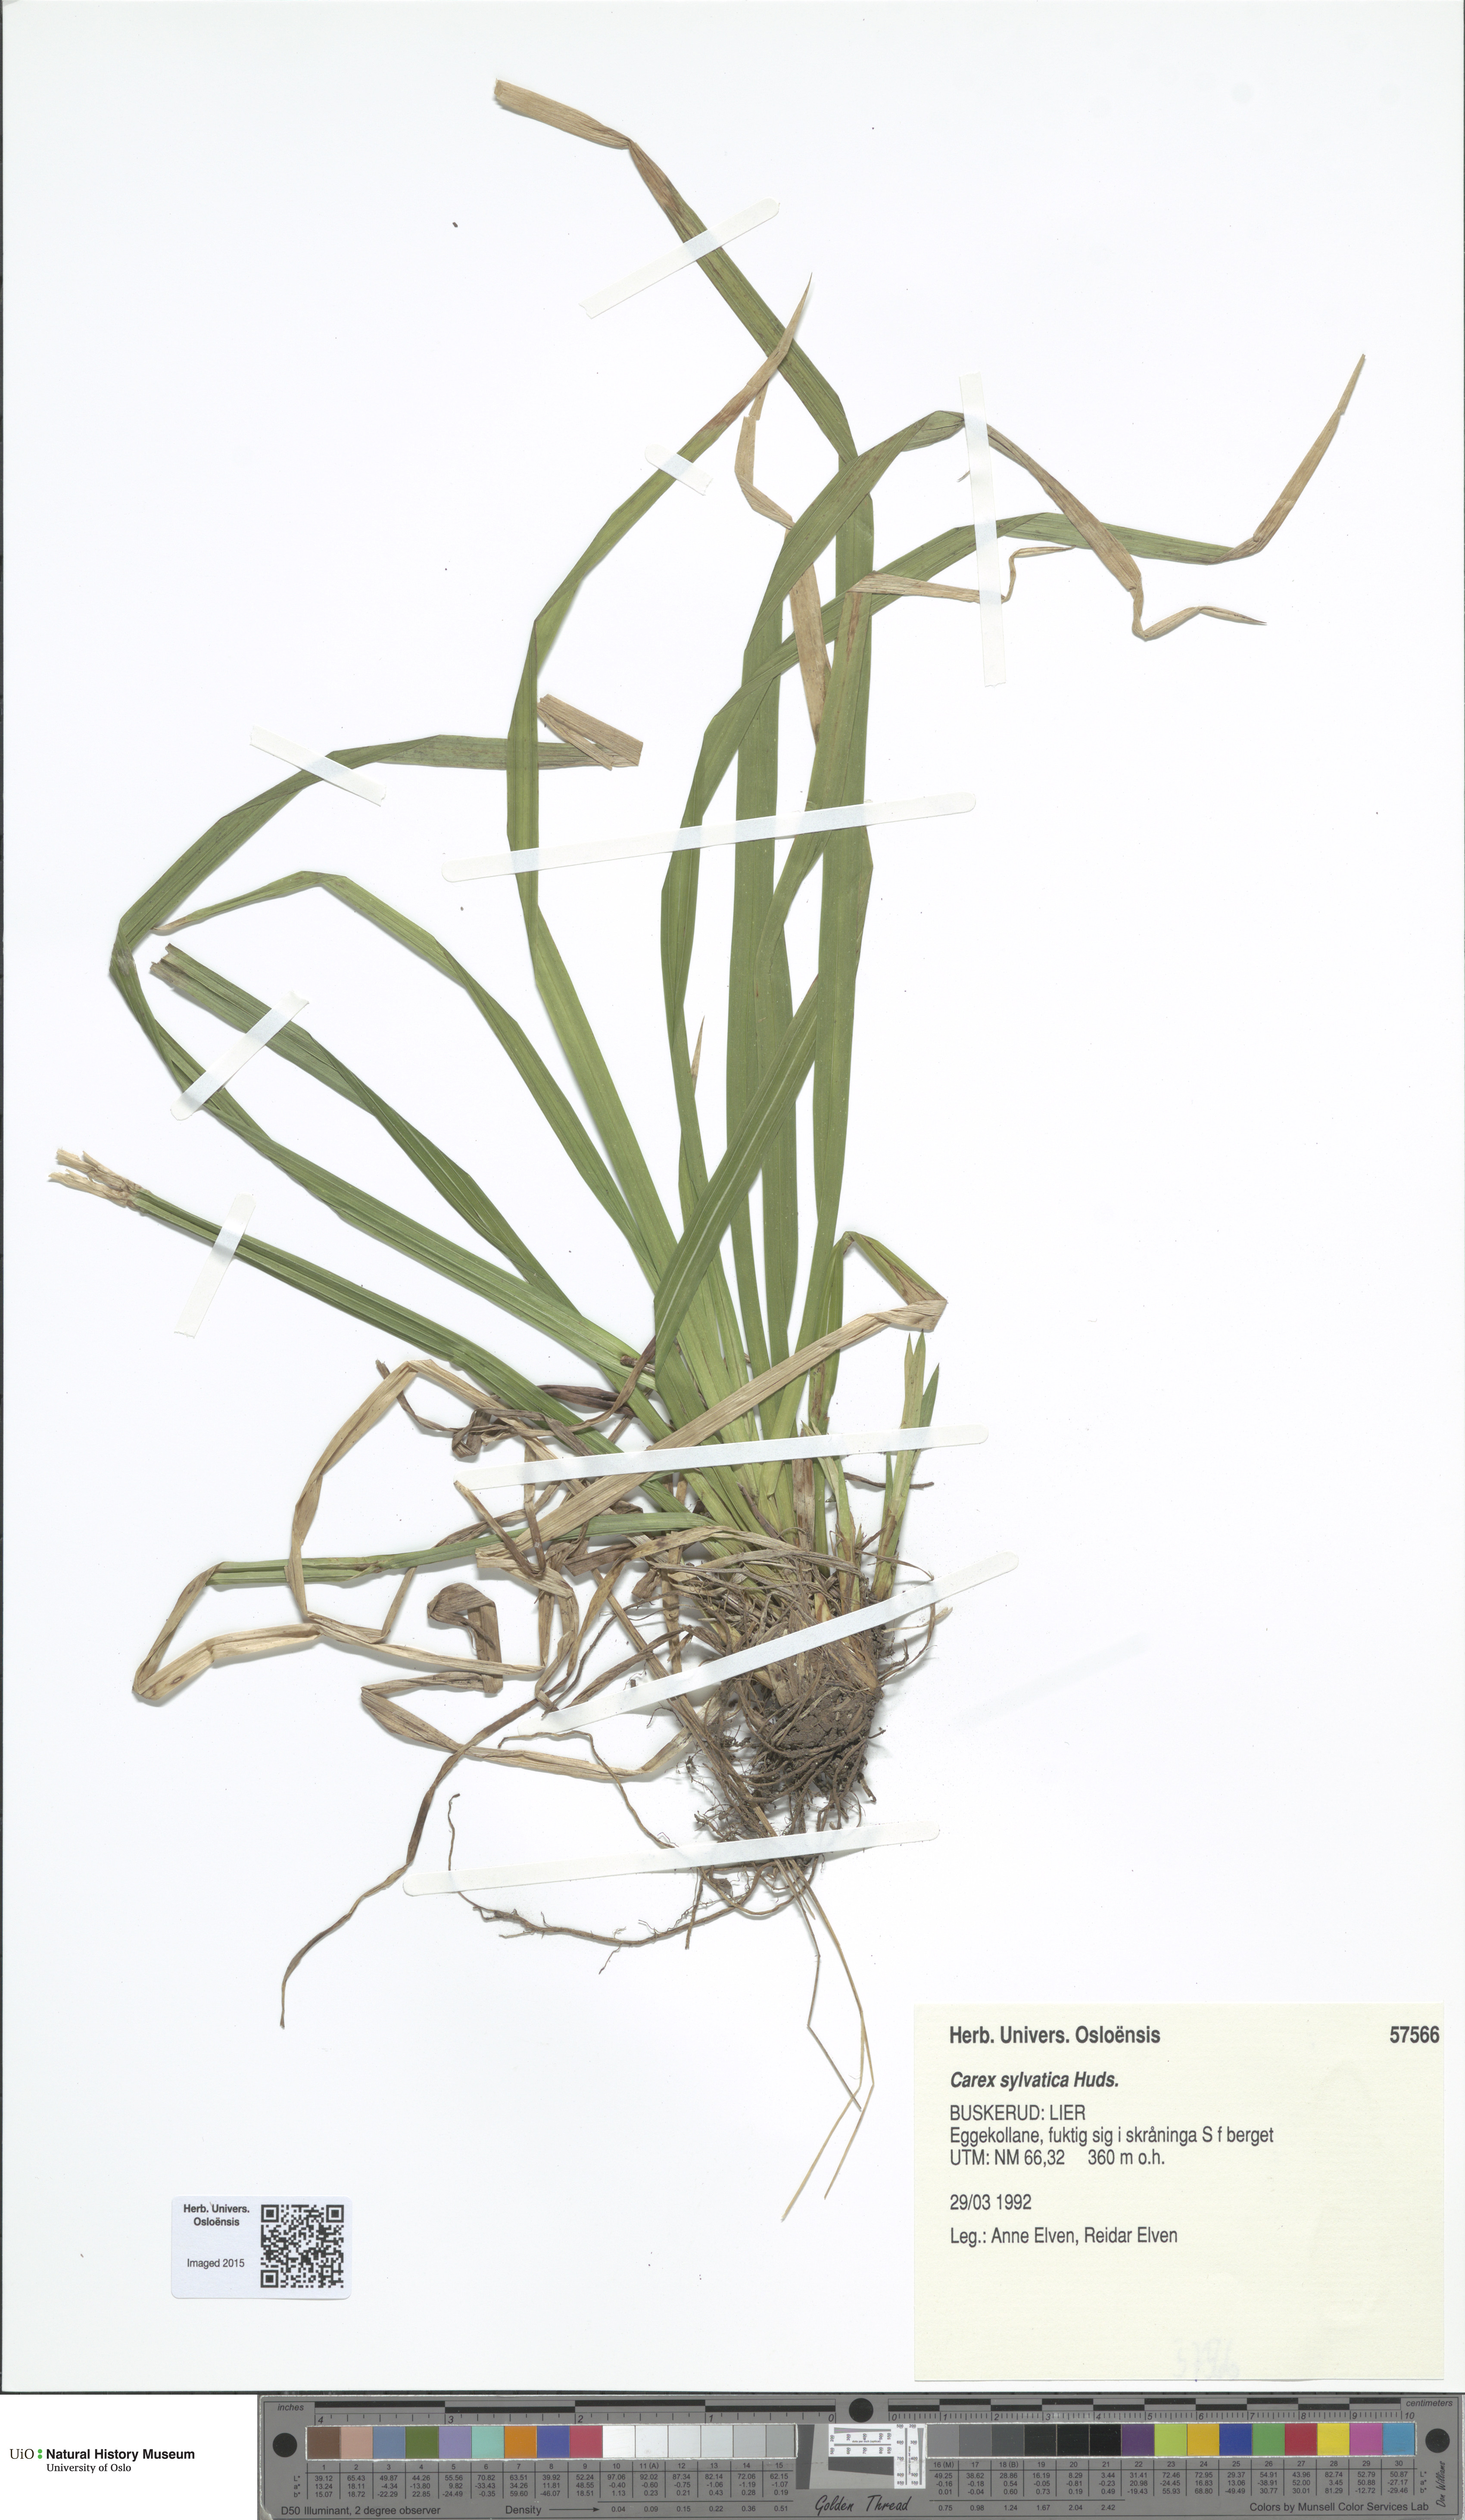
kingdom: Plantae
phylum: Tracheophyta
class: Liliopsida
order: Poales
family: Cyperaceae
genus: Carex
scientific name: Carex sylvatica
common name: Wood-sedge
